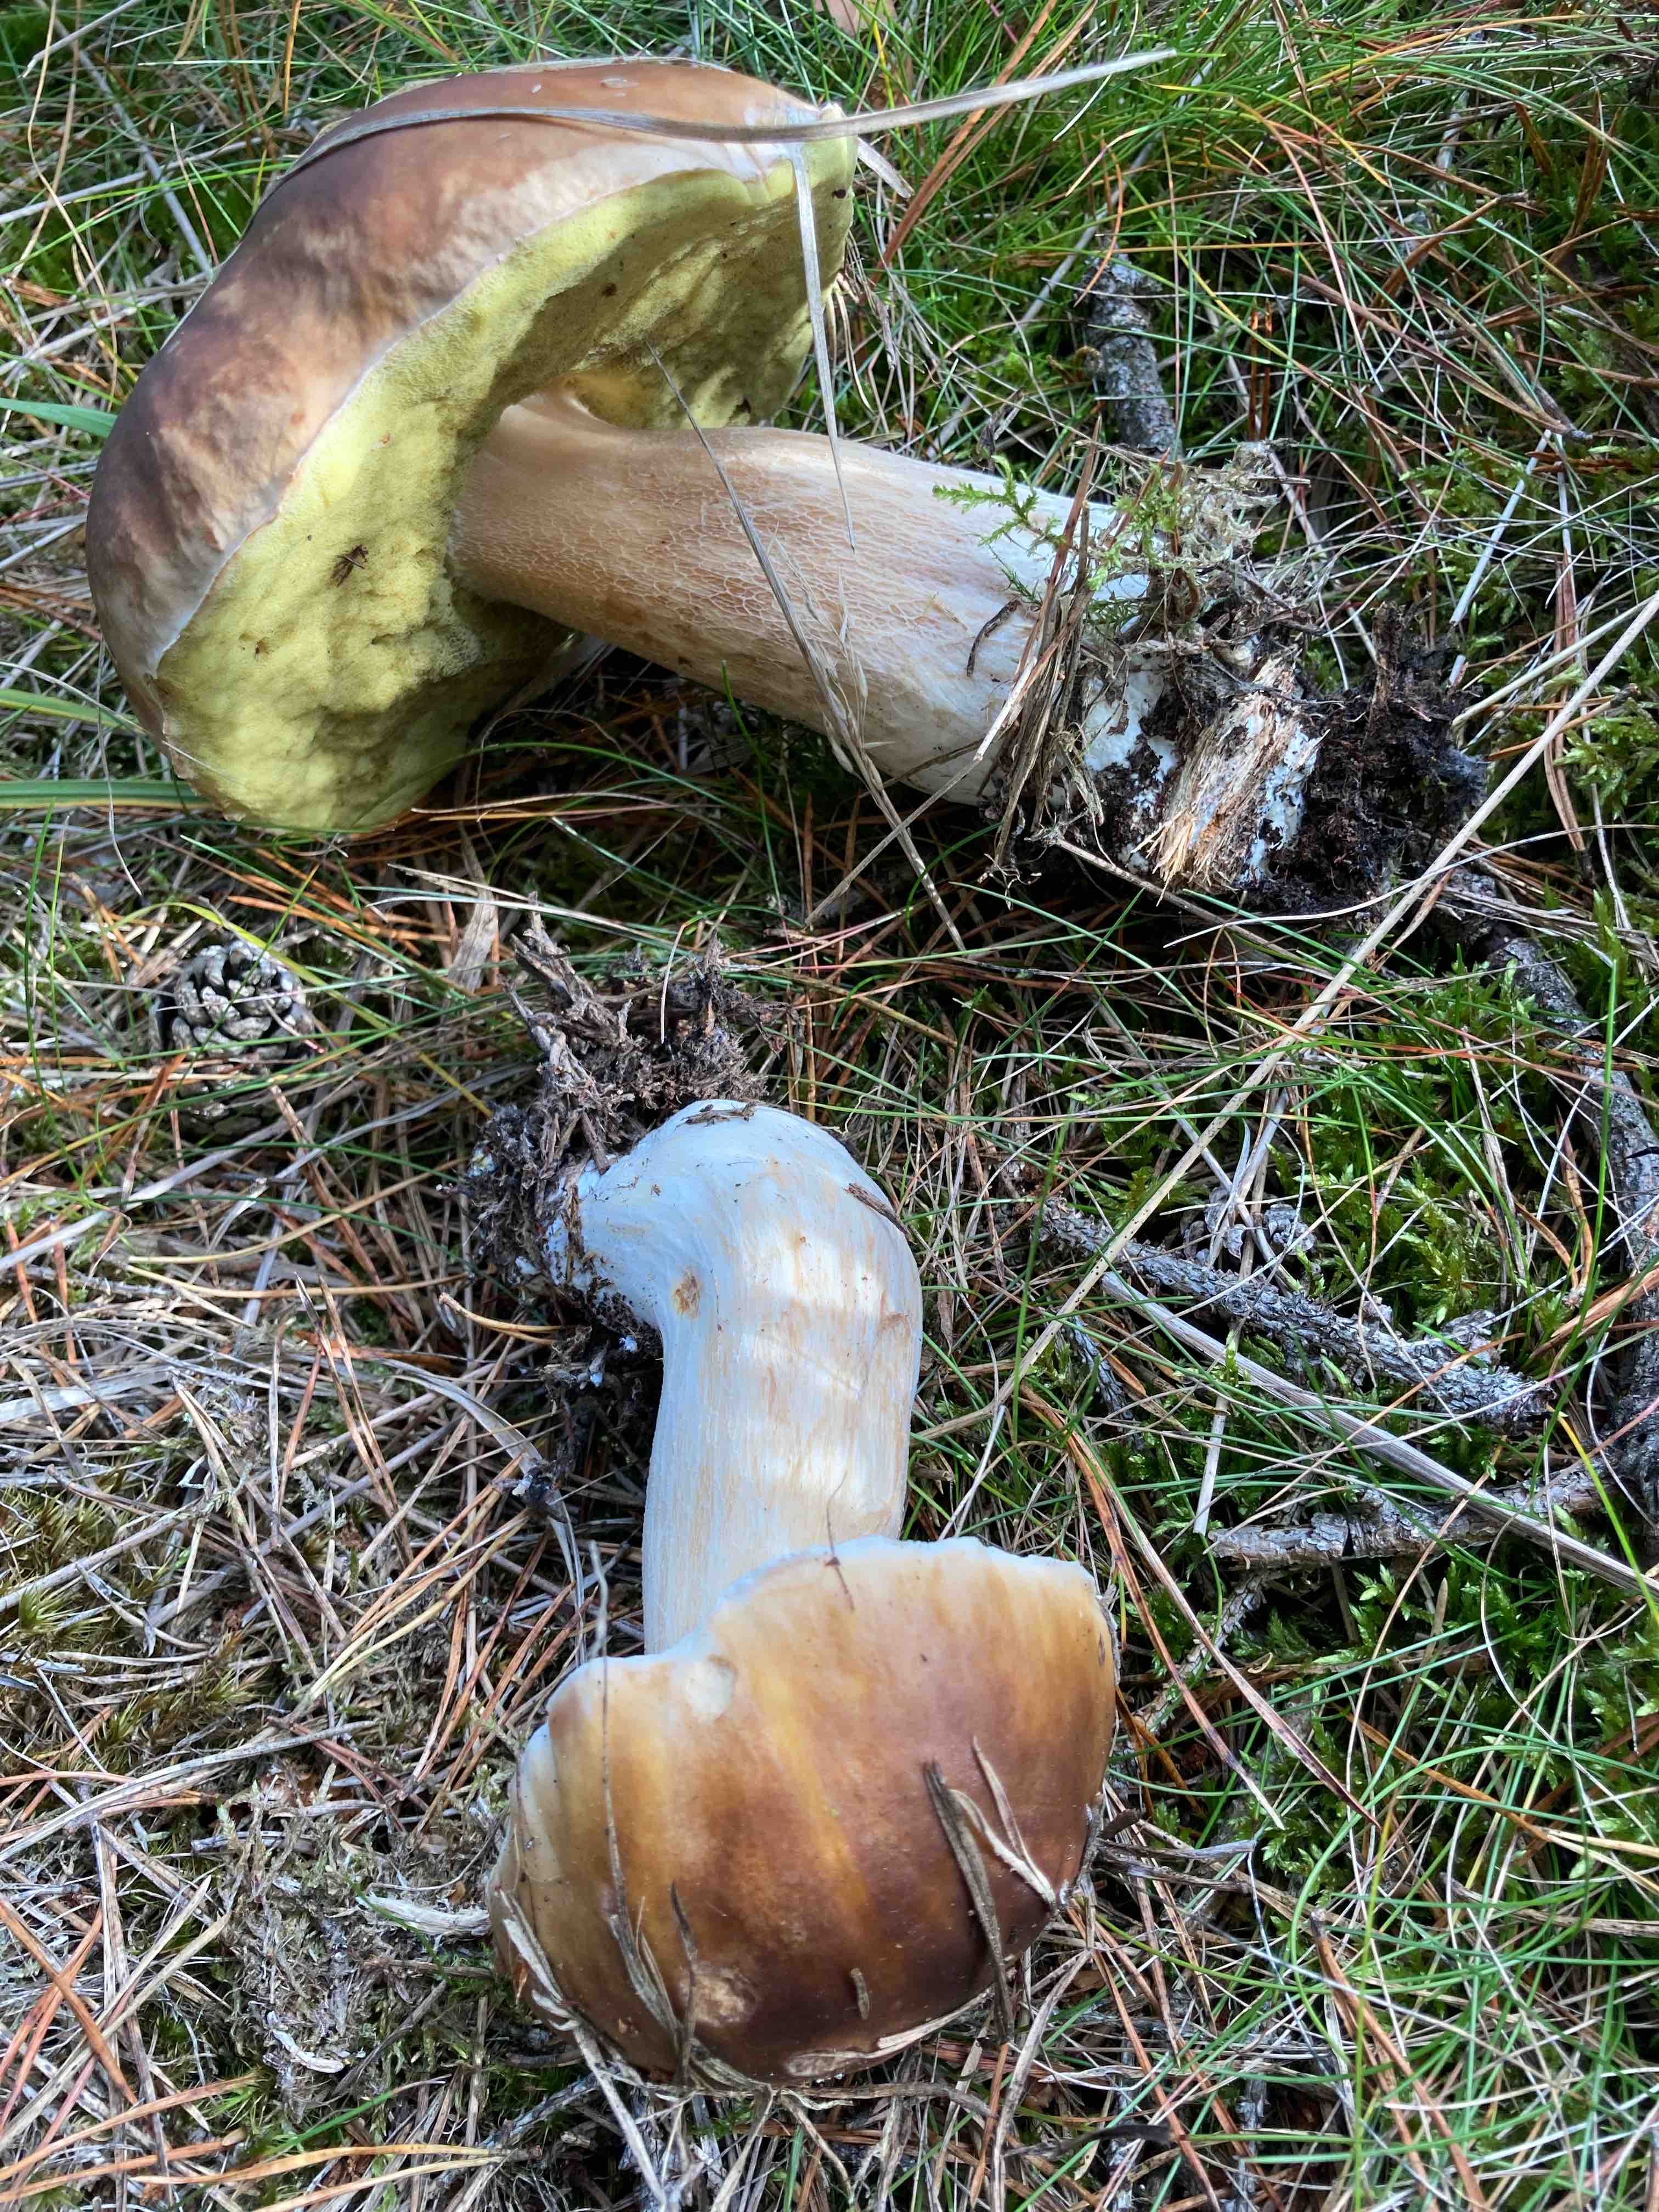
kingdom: Fungi
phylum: Basidiomycota
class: Agaricomycetes
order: Boletales
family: Boletaceae
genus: Boletus
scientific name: Boletus edulis
